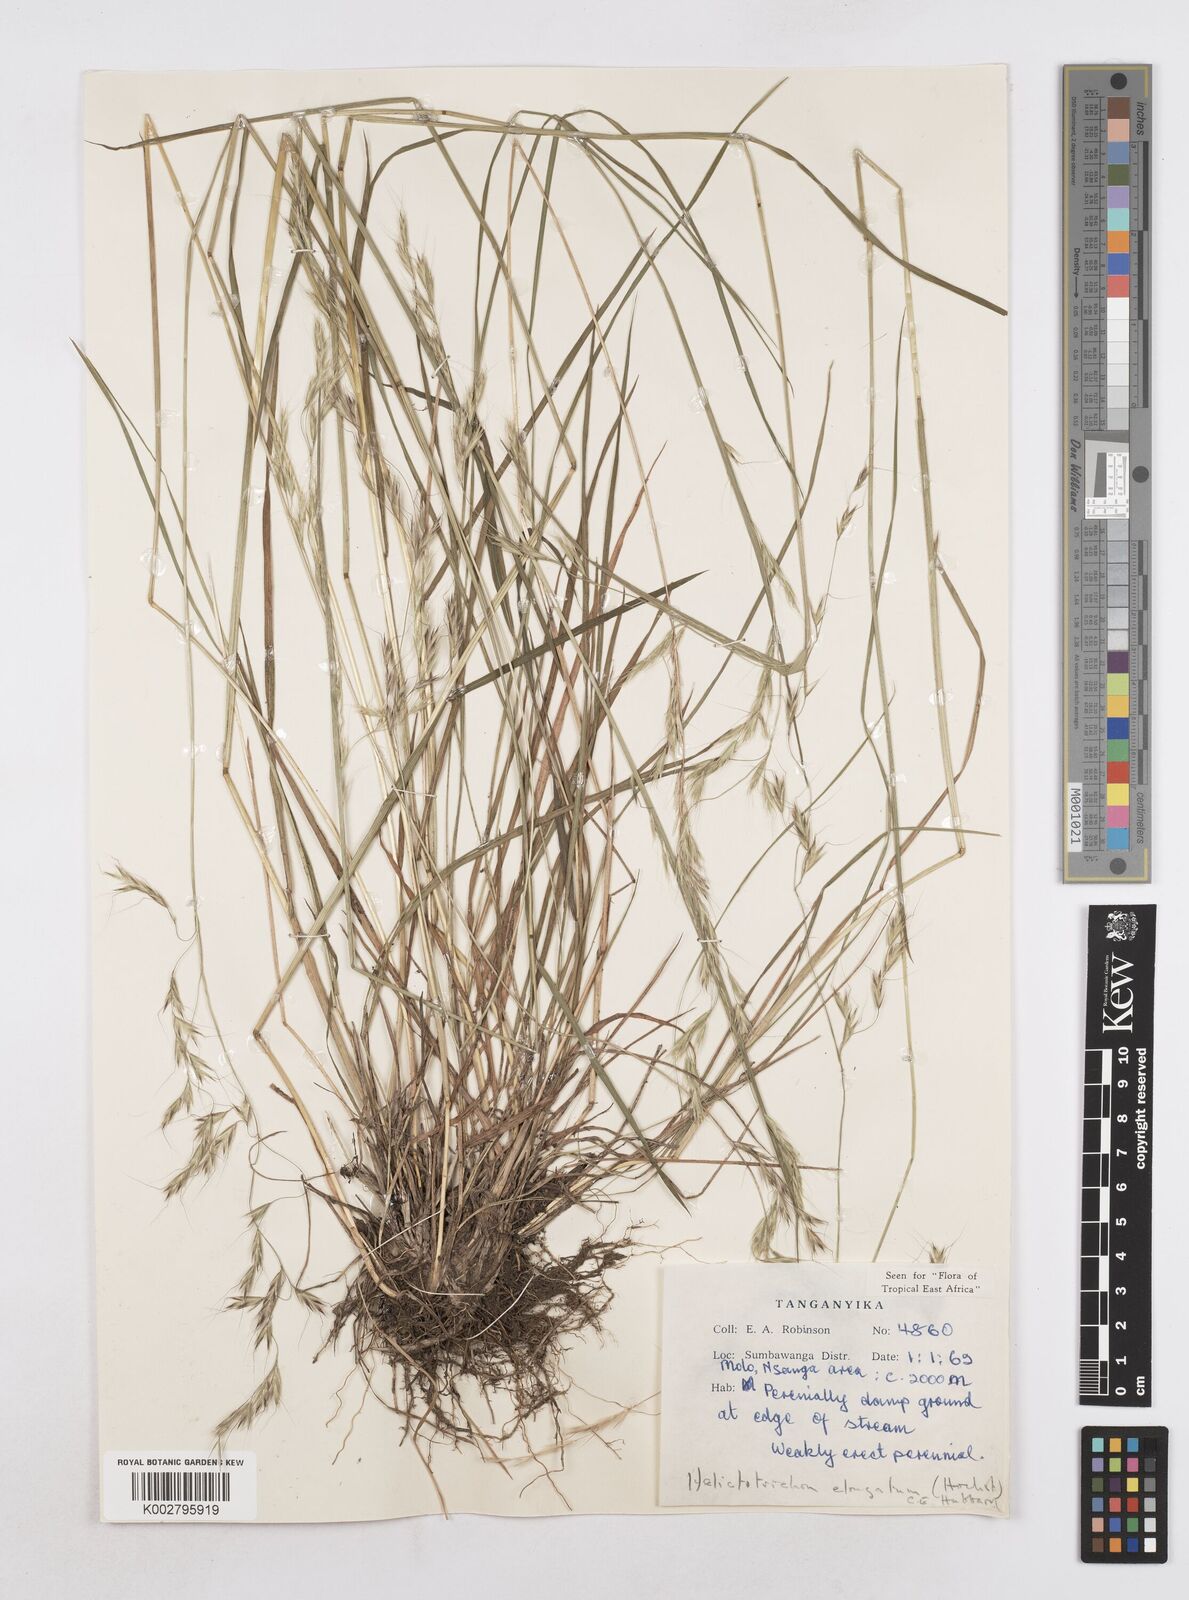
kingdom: Plantae
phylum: Tracheophyta
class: Liliopsida
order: Poales
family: Poaceae
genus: Trisetopsis
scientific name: Trisetopsis elongata
